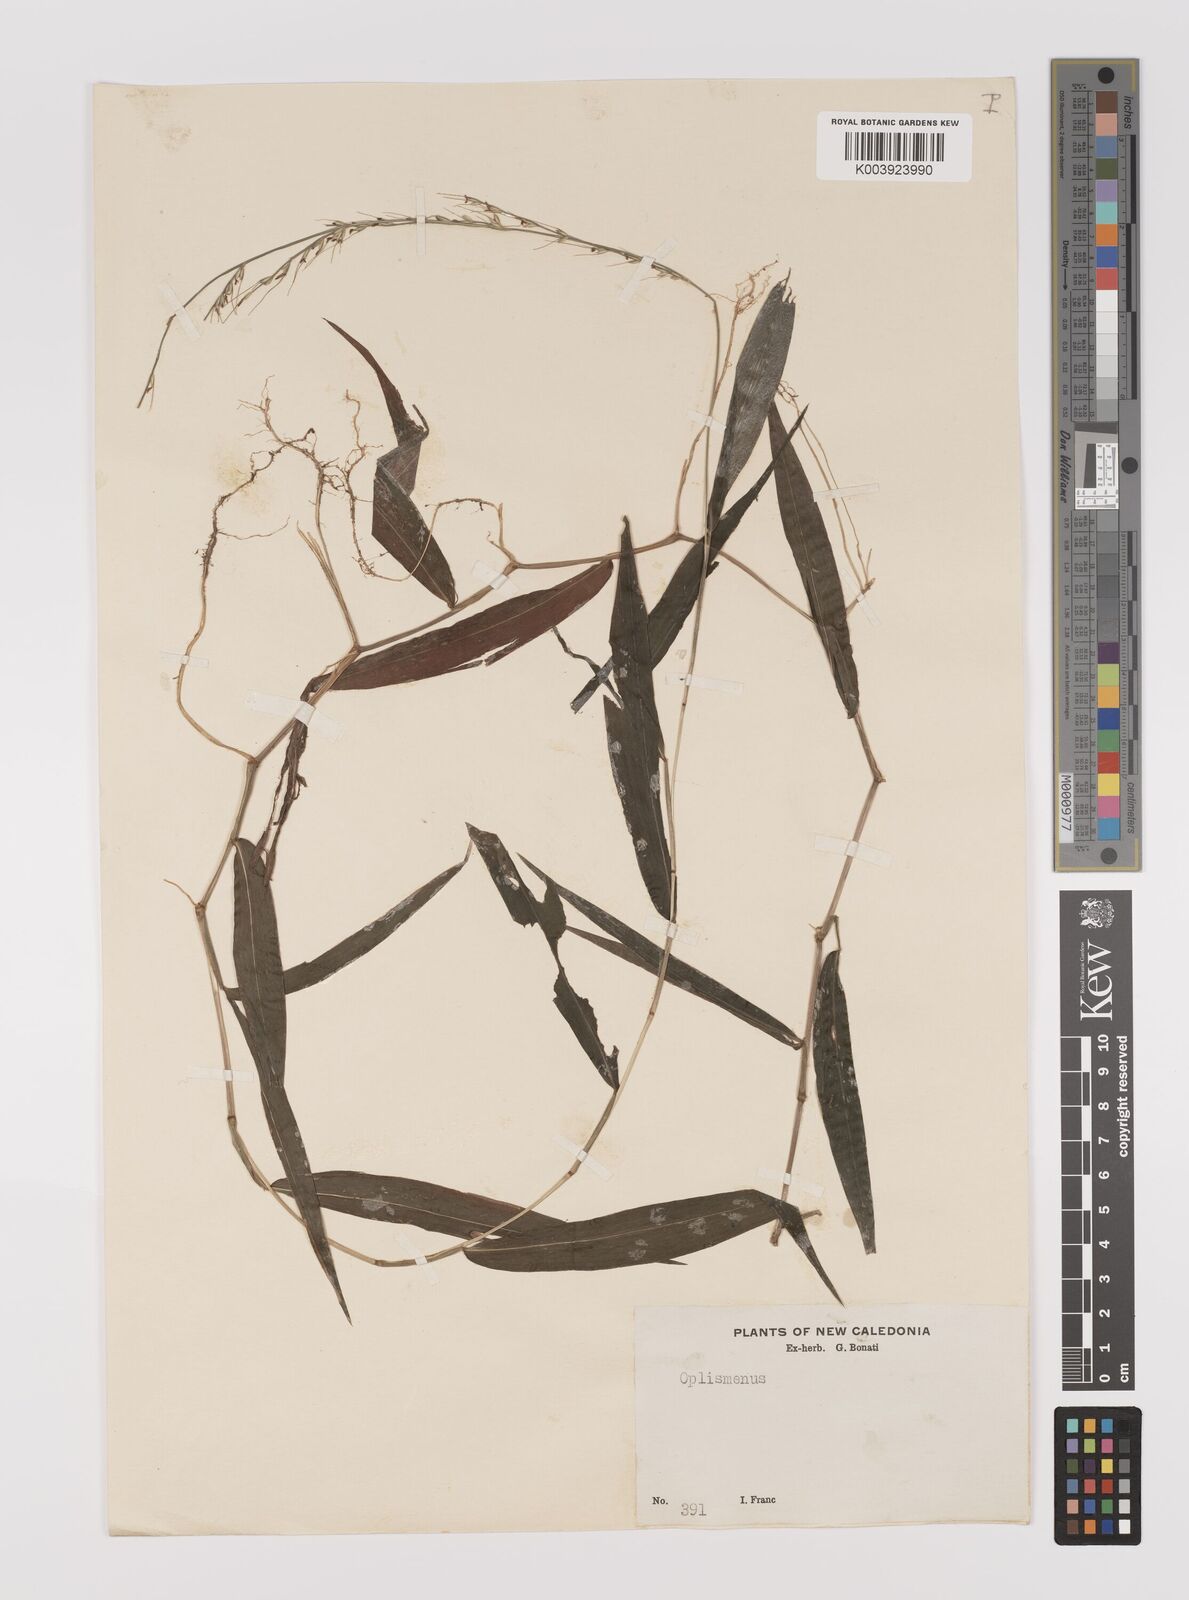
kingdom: Plantae
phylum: Tracheophyta
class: Liliopsida
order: Poales
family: Poaceae
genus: Oplismenus
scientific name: Oplismenus compositus
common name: Running mountain grass
